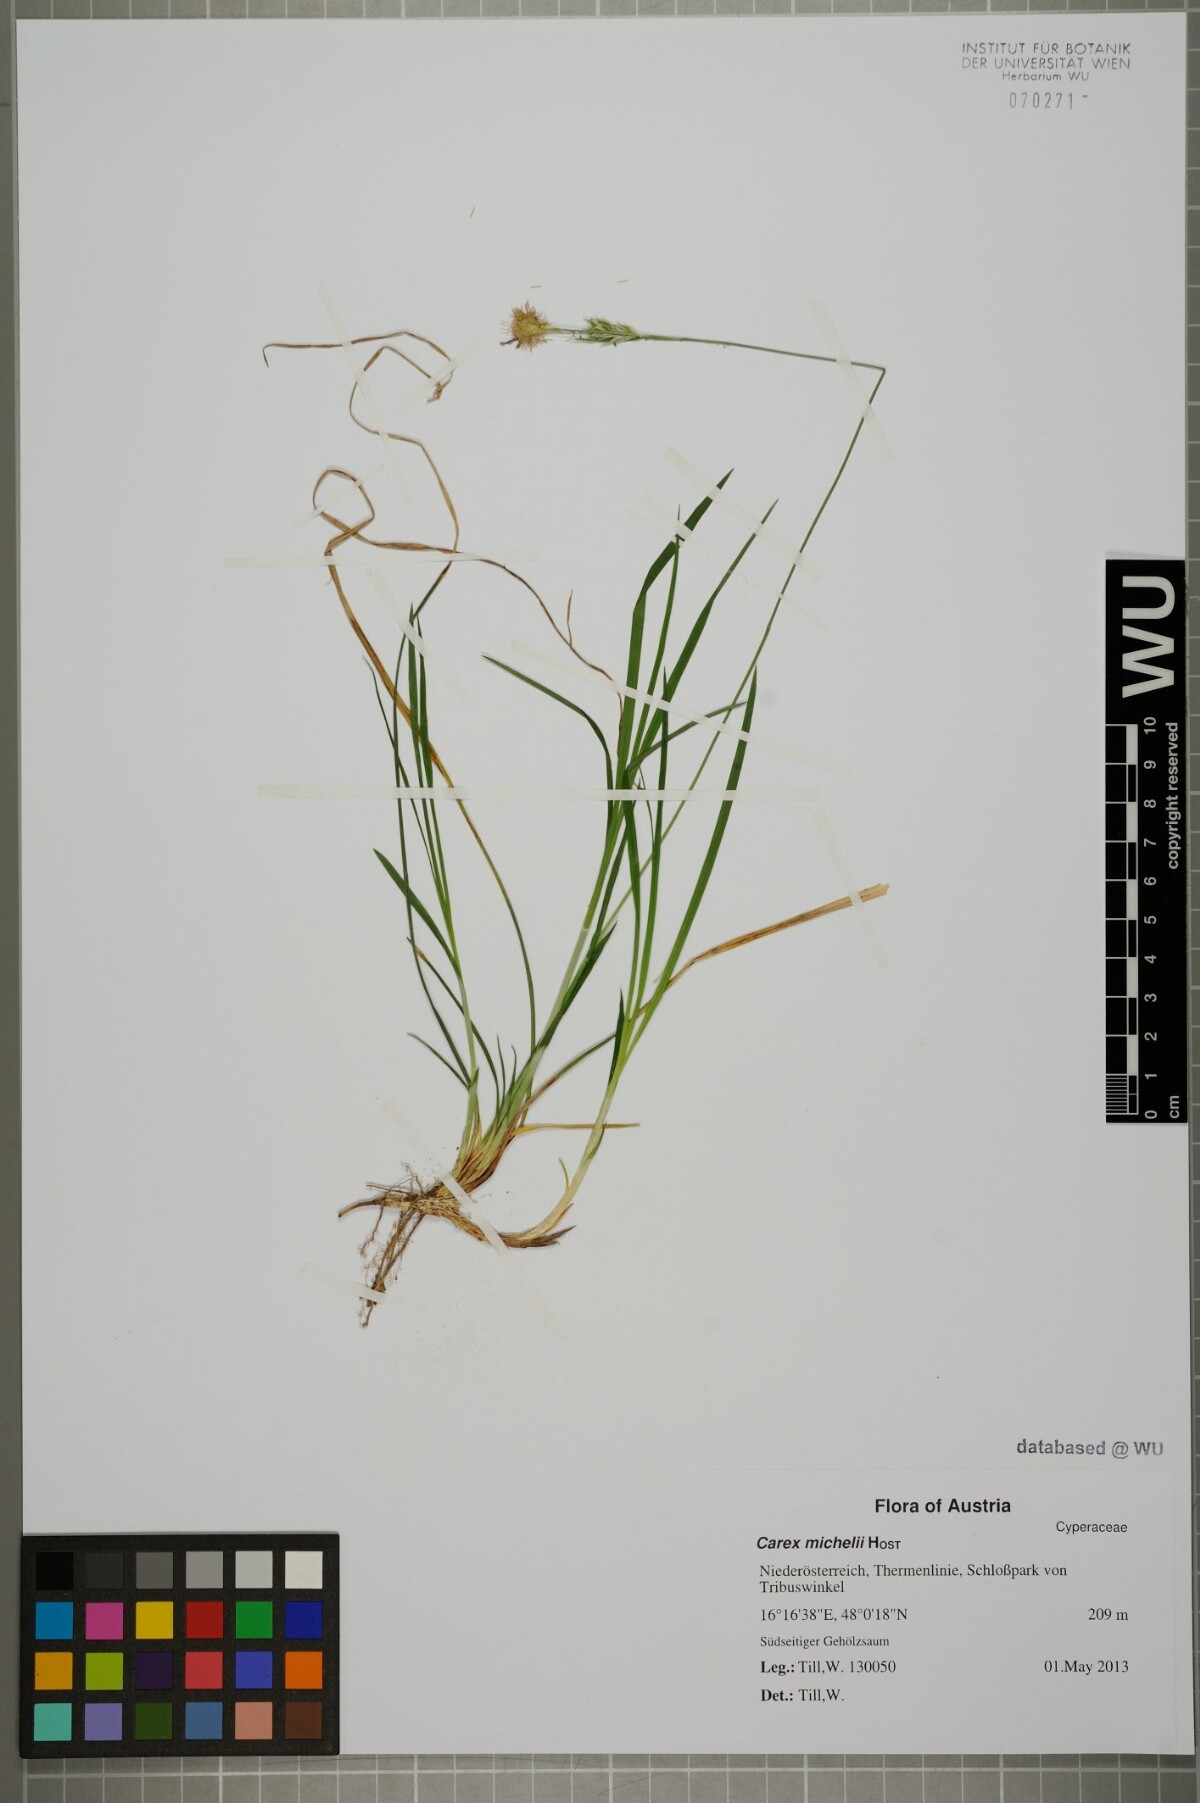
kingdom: Plantae
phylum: Tracheophyta
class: Liliopsida
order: Poales
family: Cyperaceae
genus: Carex
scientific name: Carex michelii
